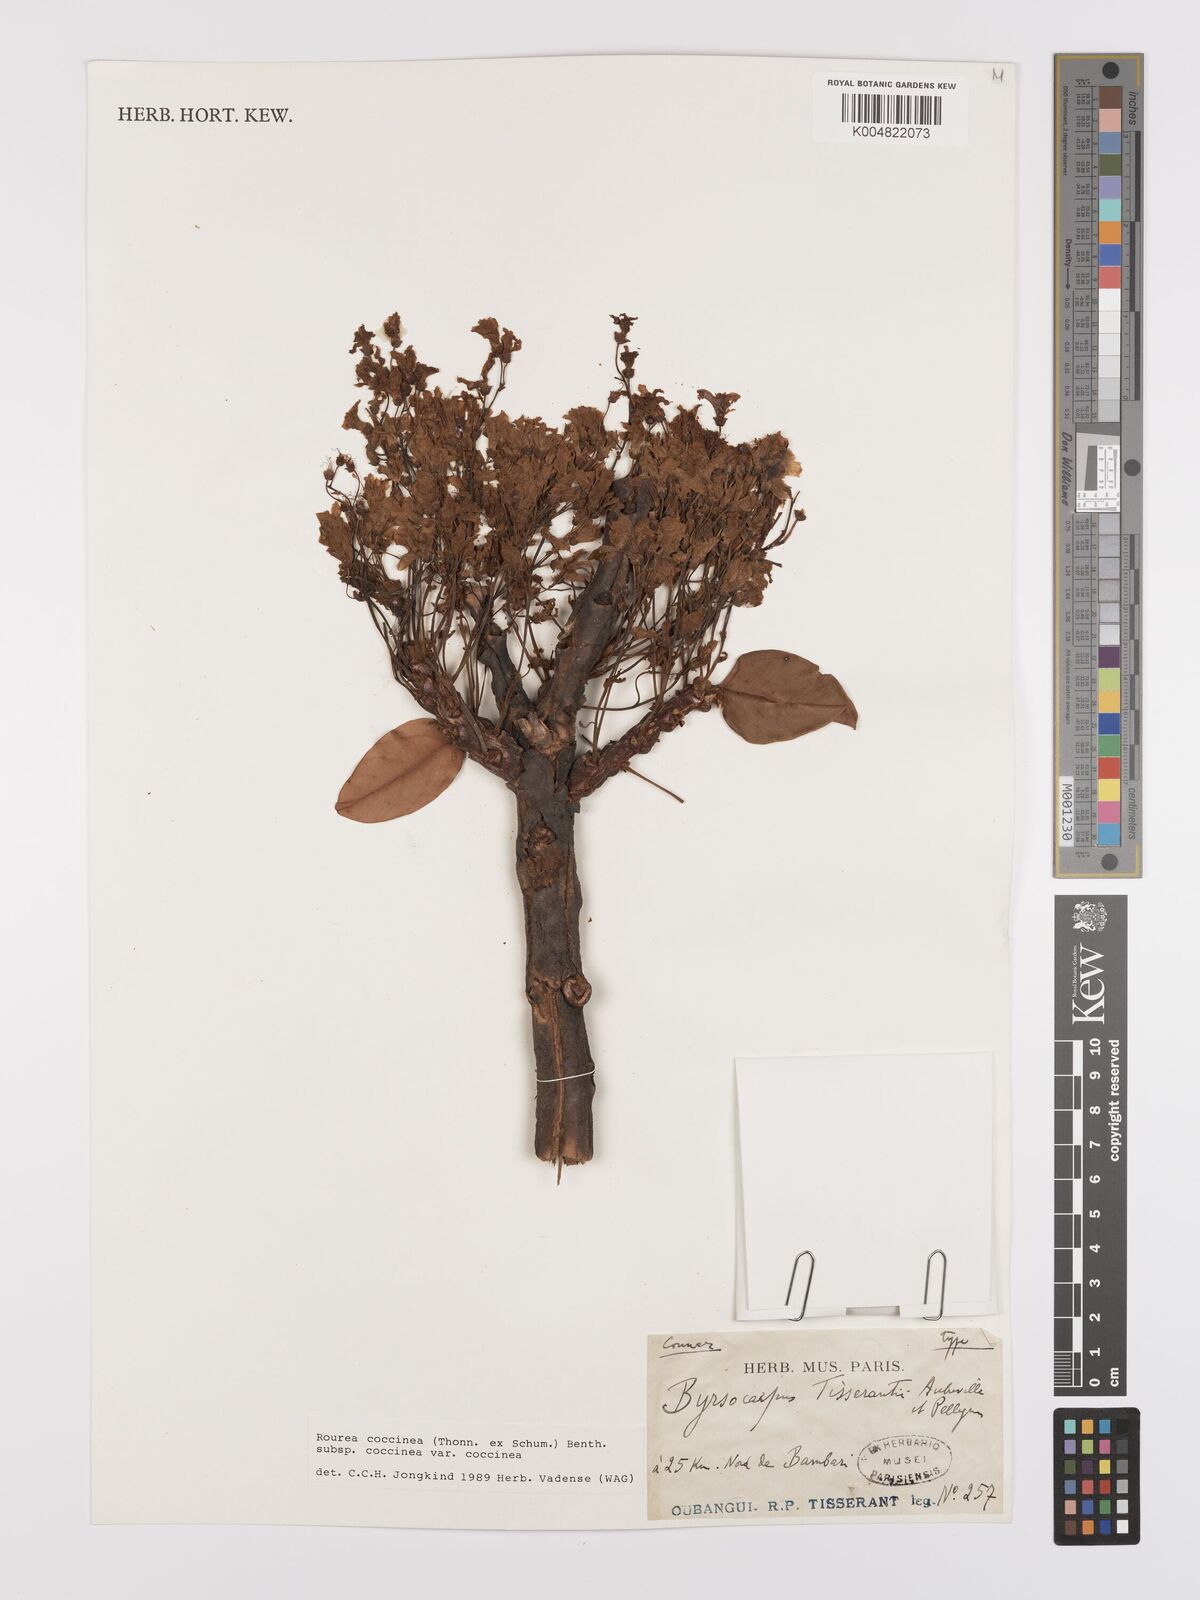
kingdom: Plantae
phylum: Tracheophyta
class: Magnoliopsida
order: Oxalidales
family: Connaraceae
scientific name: Connaraceae
